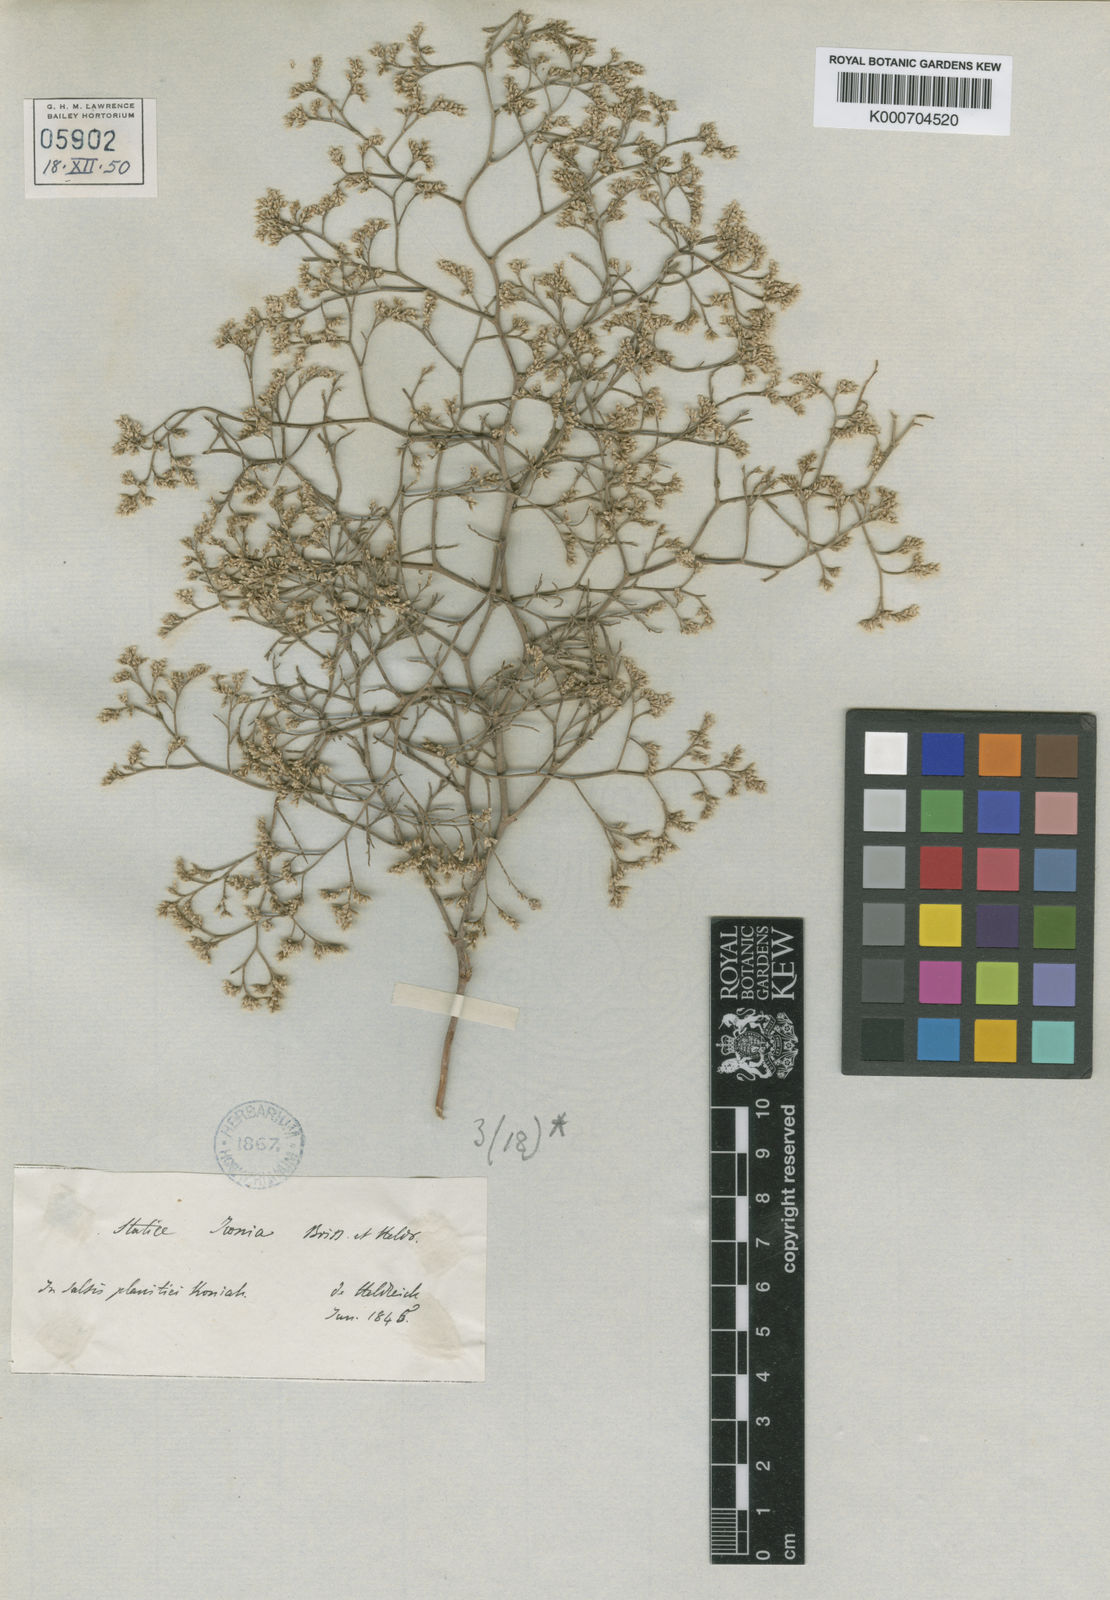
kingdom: Plantae
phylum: Tracheophyta
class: Magnoliopsida
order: Caryophyllales
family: Plumbaginaceae
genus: Limonium
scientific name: Limonium iconicum
